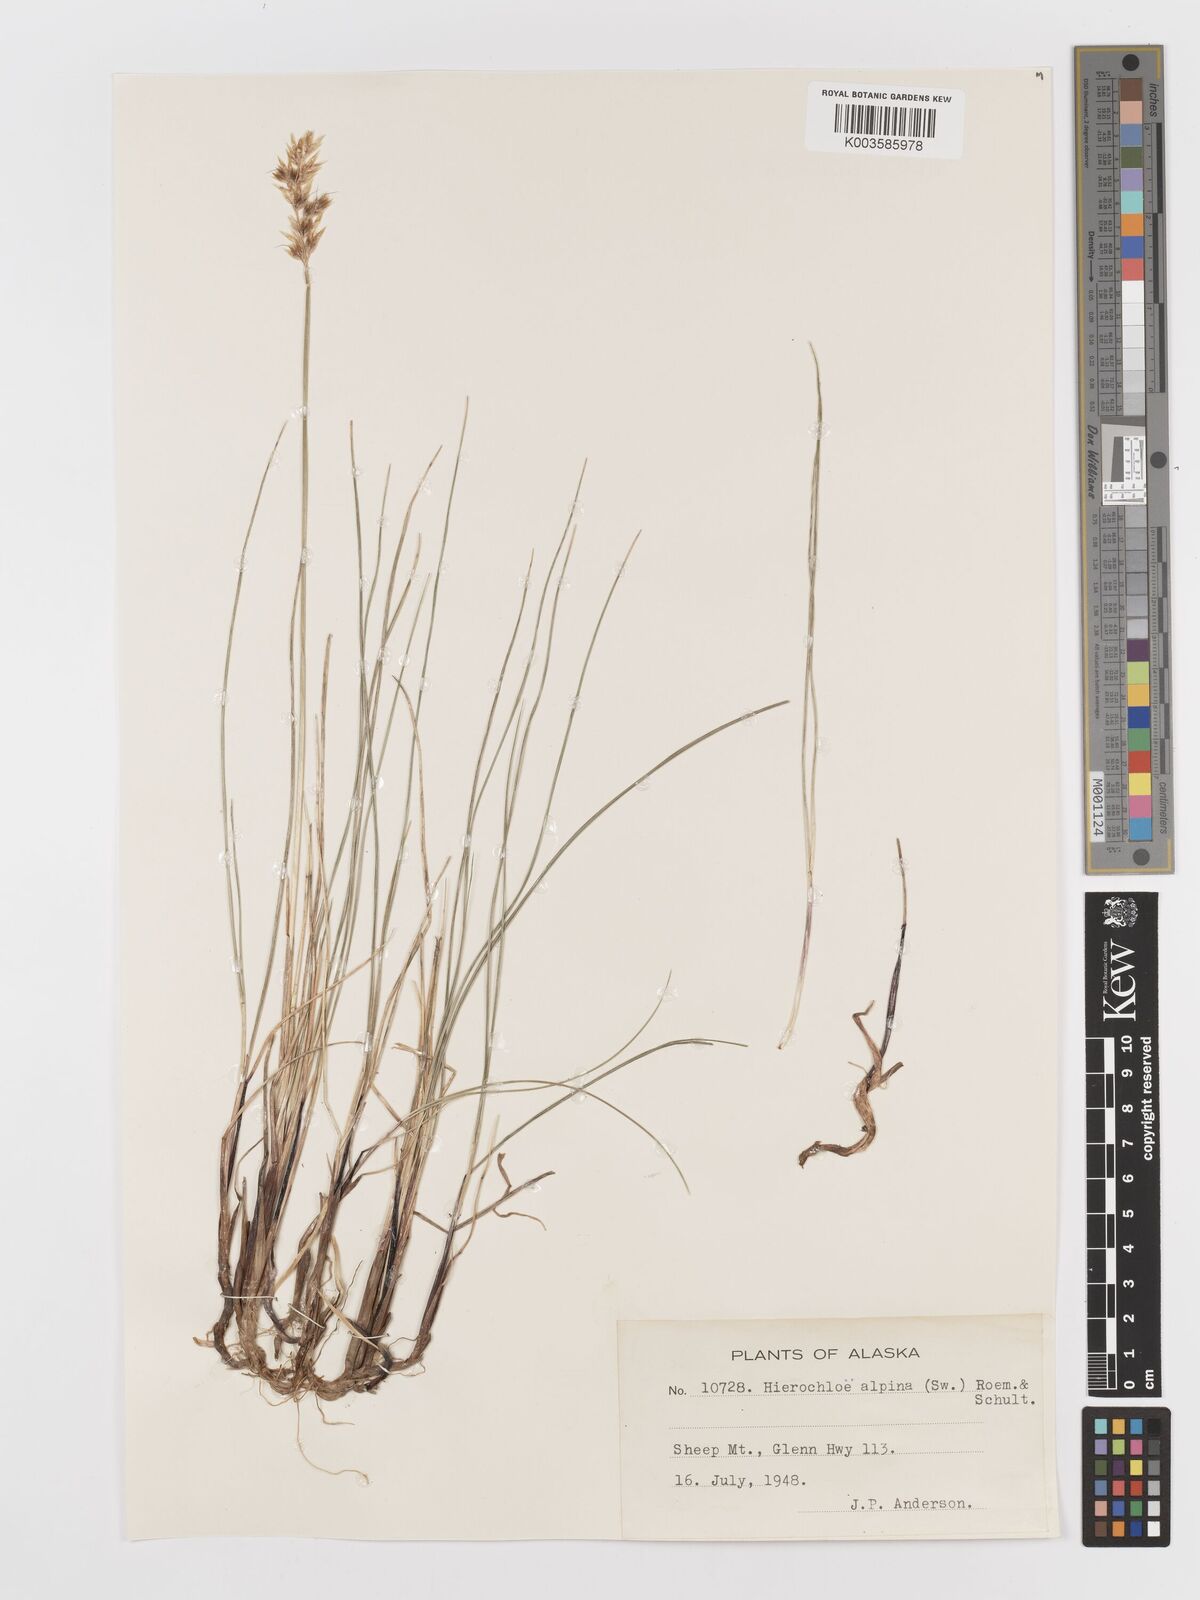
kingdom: Plantae
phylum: Tracheophyta
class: Liliopsida
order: Poales
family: Poaceae
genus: Anthoxanthum
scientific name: Anthoxanthum monticola
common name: Alpine sweetgrass
